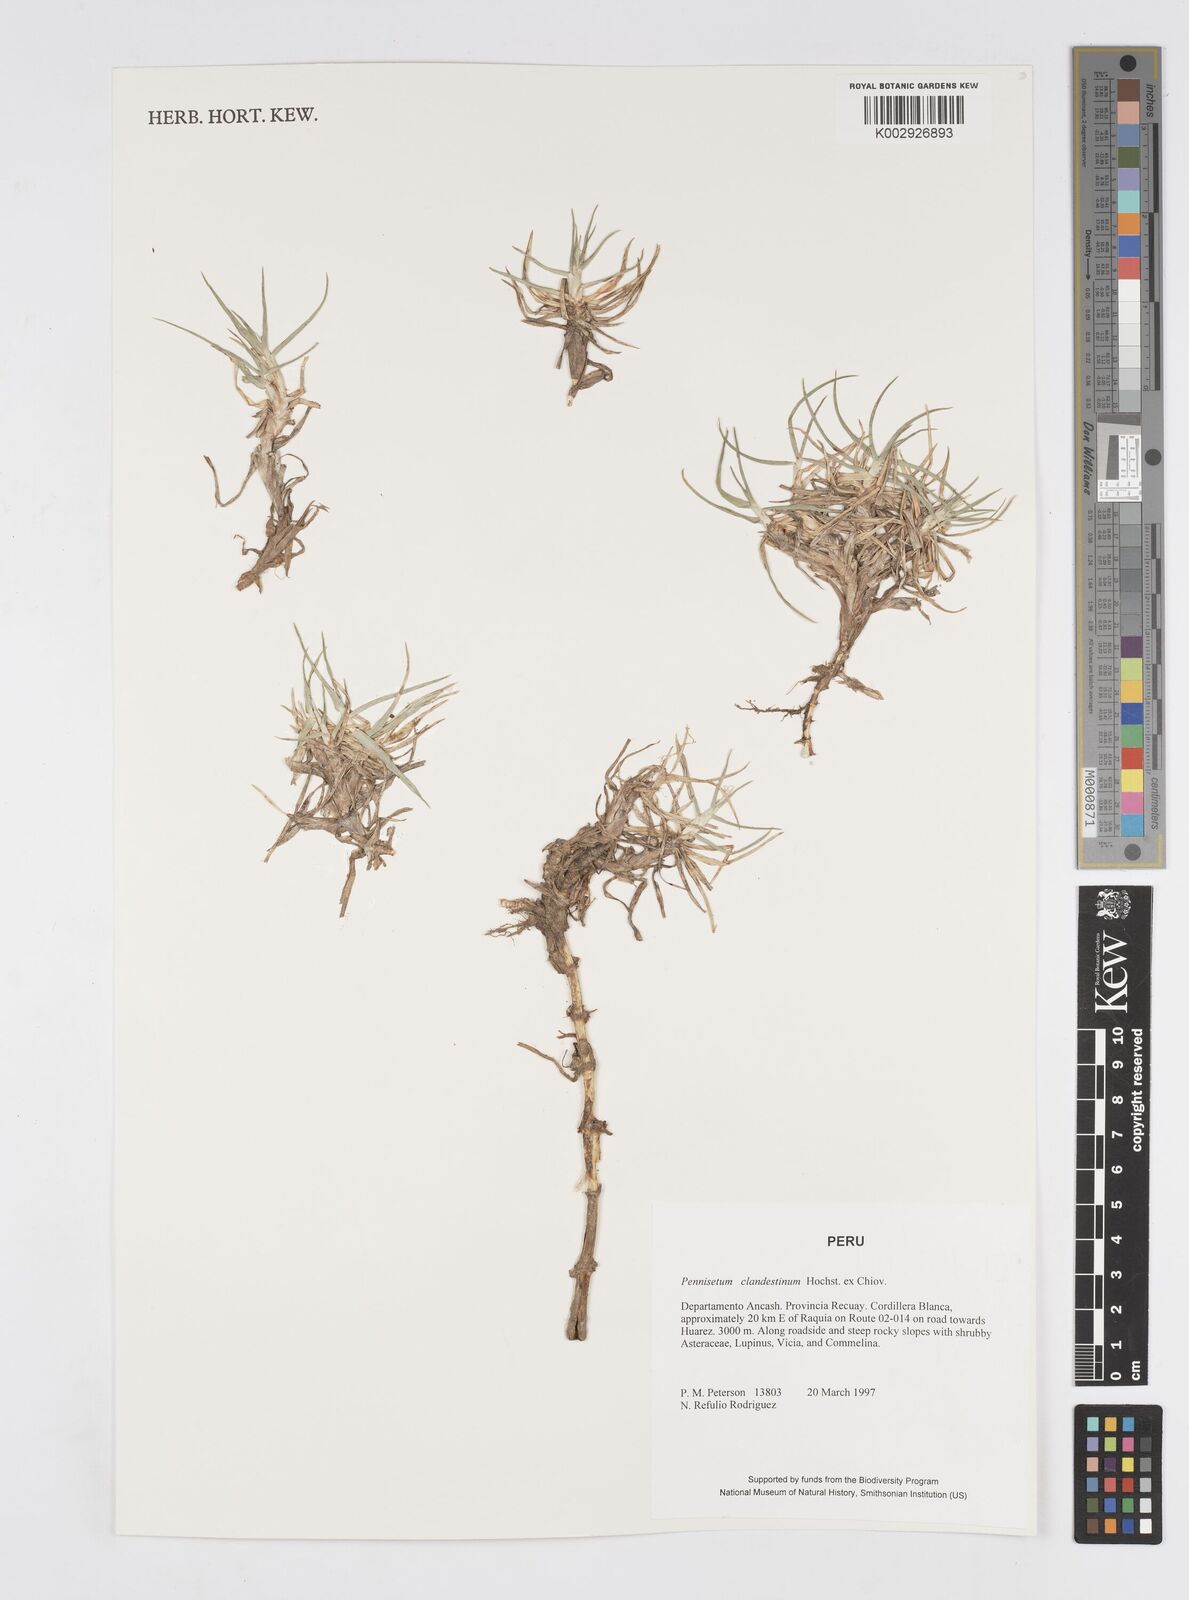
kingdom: Plantae
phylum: Tracheophyta
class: Liliopsida
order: Poales
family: Poaceae
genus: Cenchrus
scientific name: Cenchrus clandestinus
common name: Kikuyugrass
